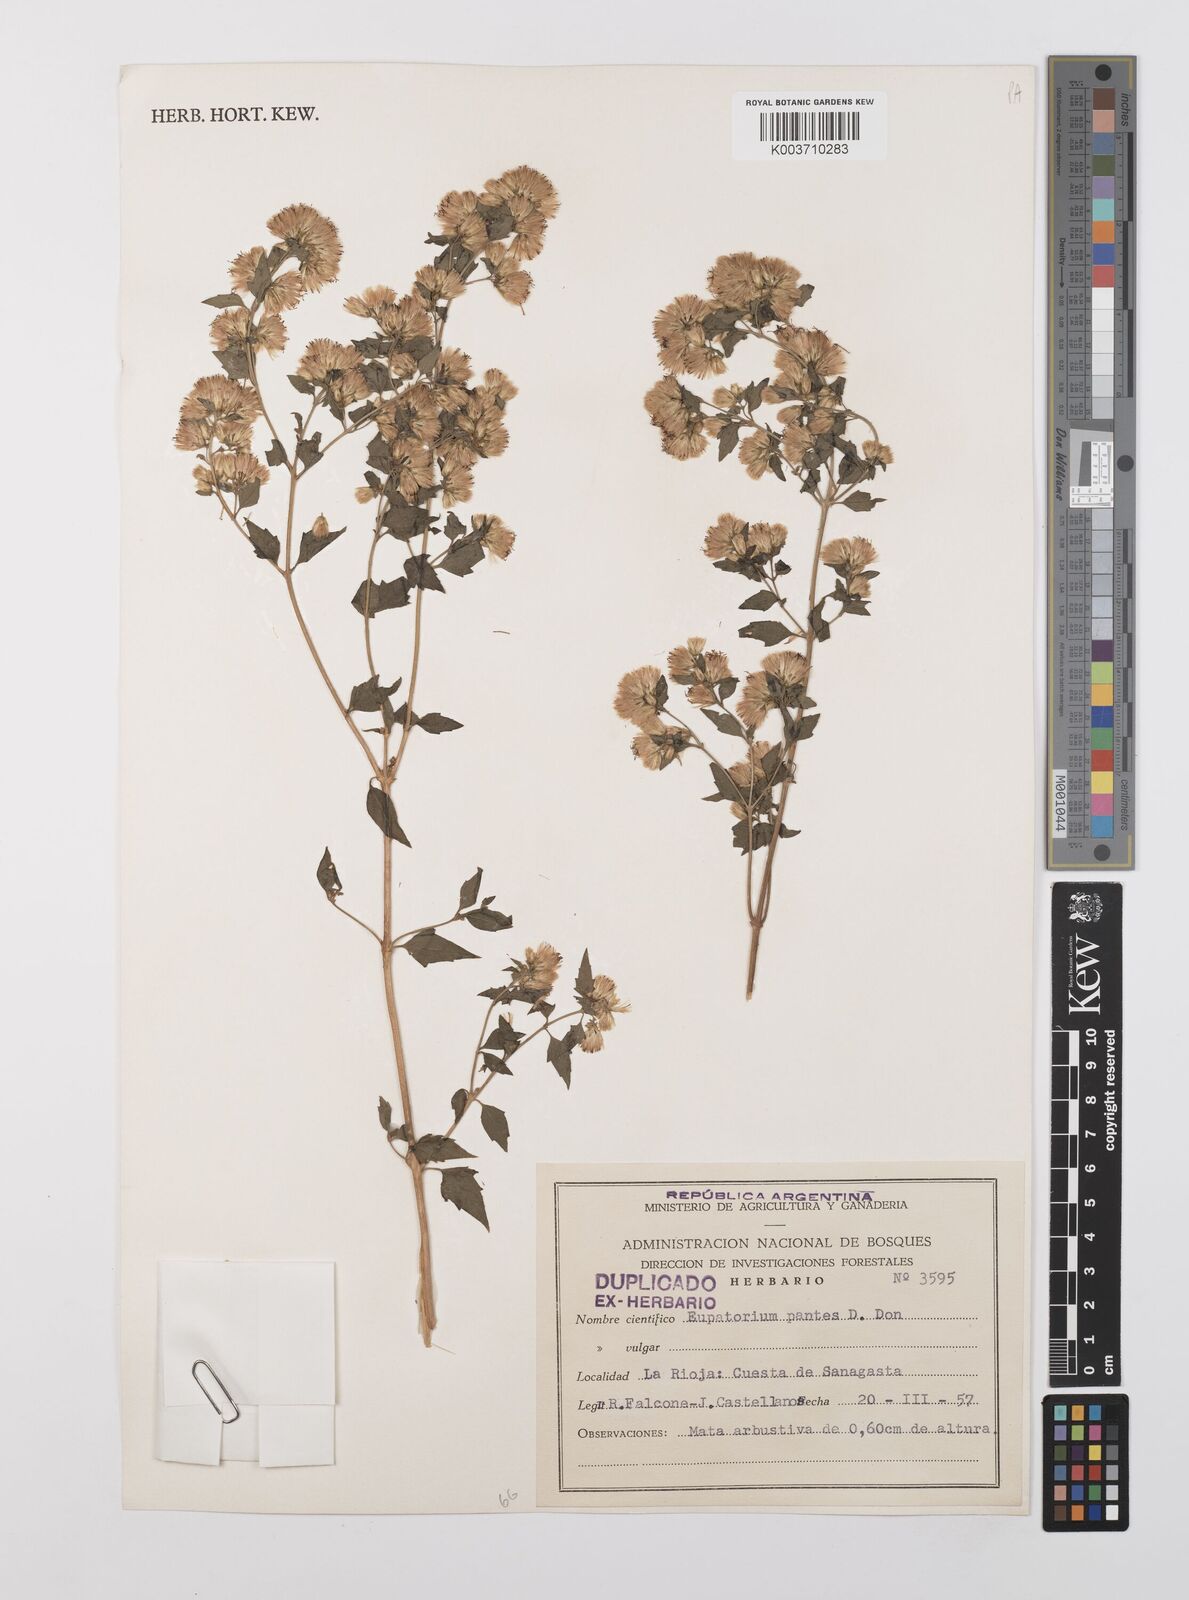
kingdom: Plantae
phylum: Tracheophyta
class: Magnoliopsida
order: Asterales
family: Asteraceae
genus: Austrobrickellia
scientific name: Austrobrickellia patens
